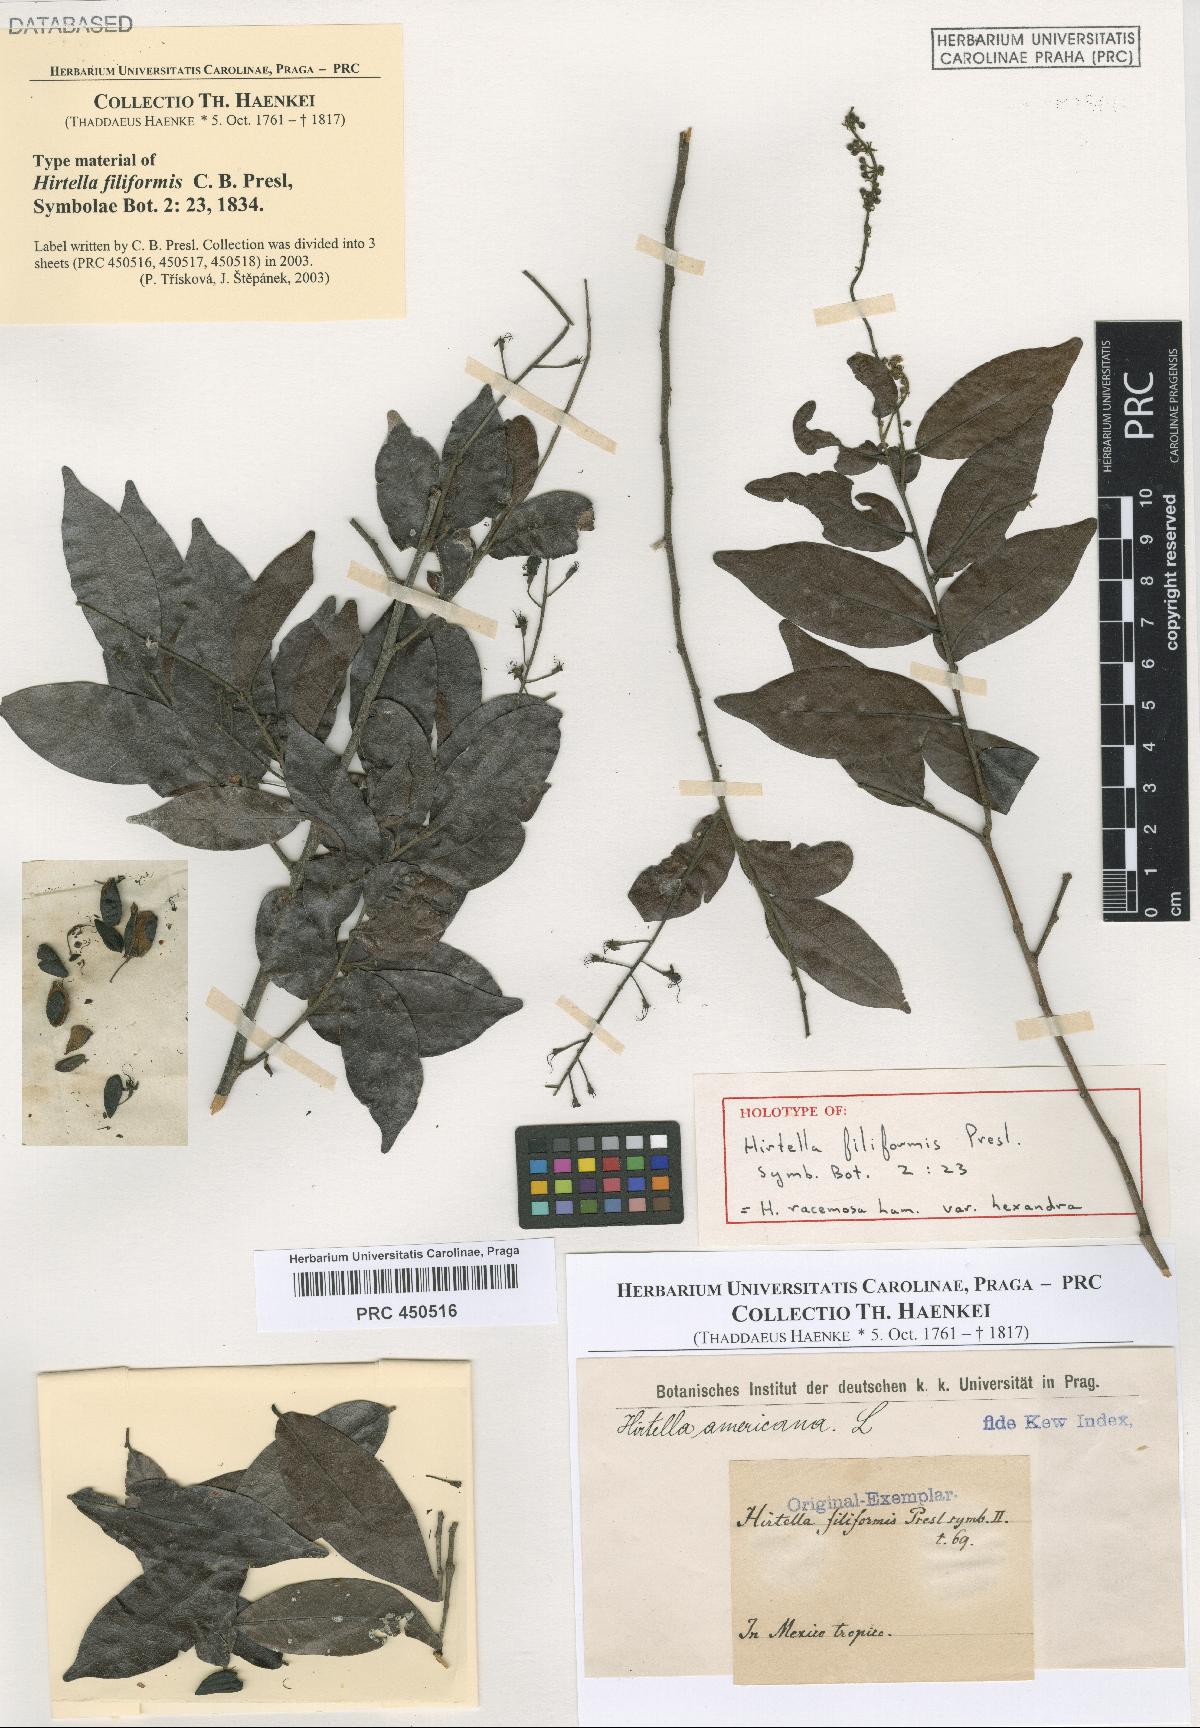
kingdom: Plantae
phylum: Tracheophyta
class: Magnoliopsida
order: Malpighiales
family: Chrysobalanaceae
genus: Hirtella
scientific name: Hirtella racemosa
